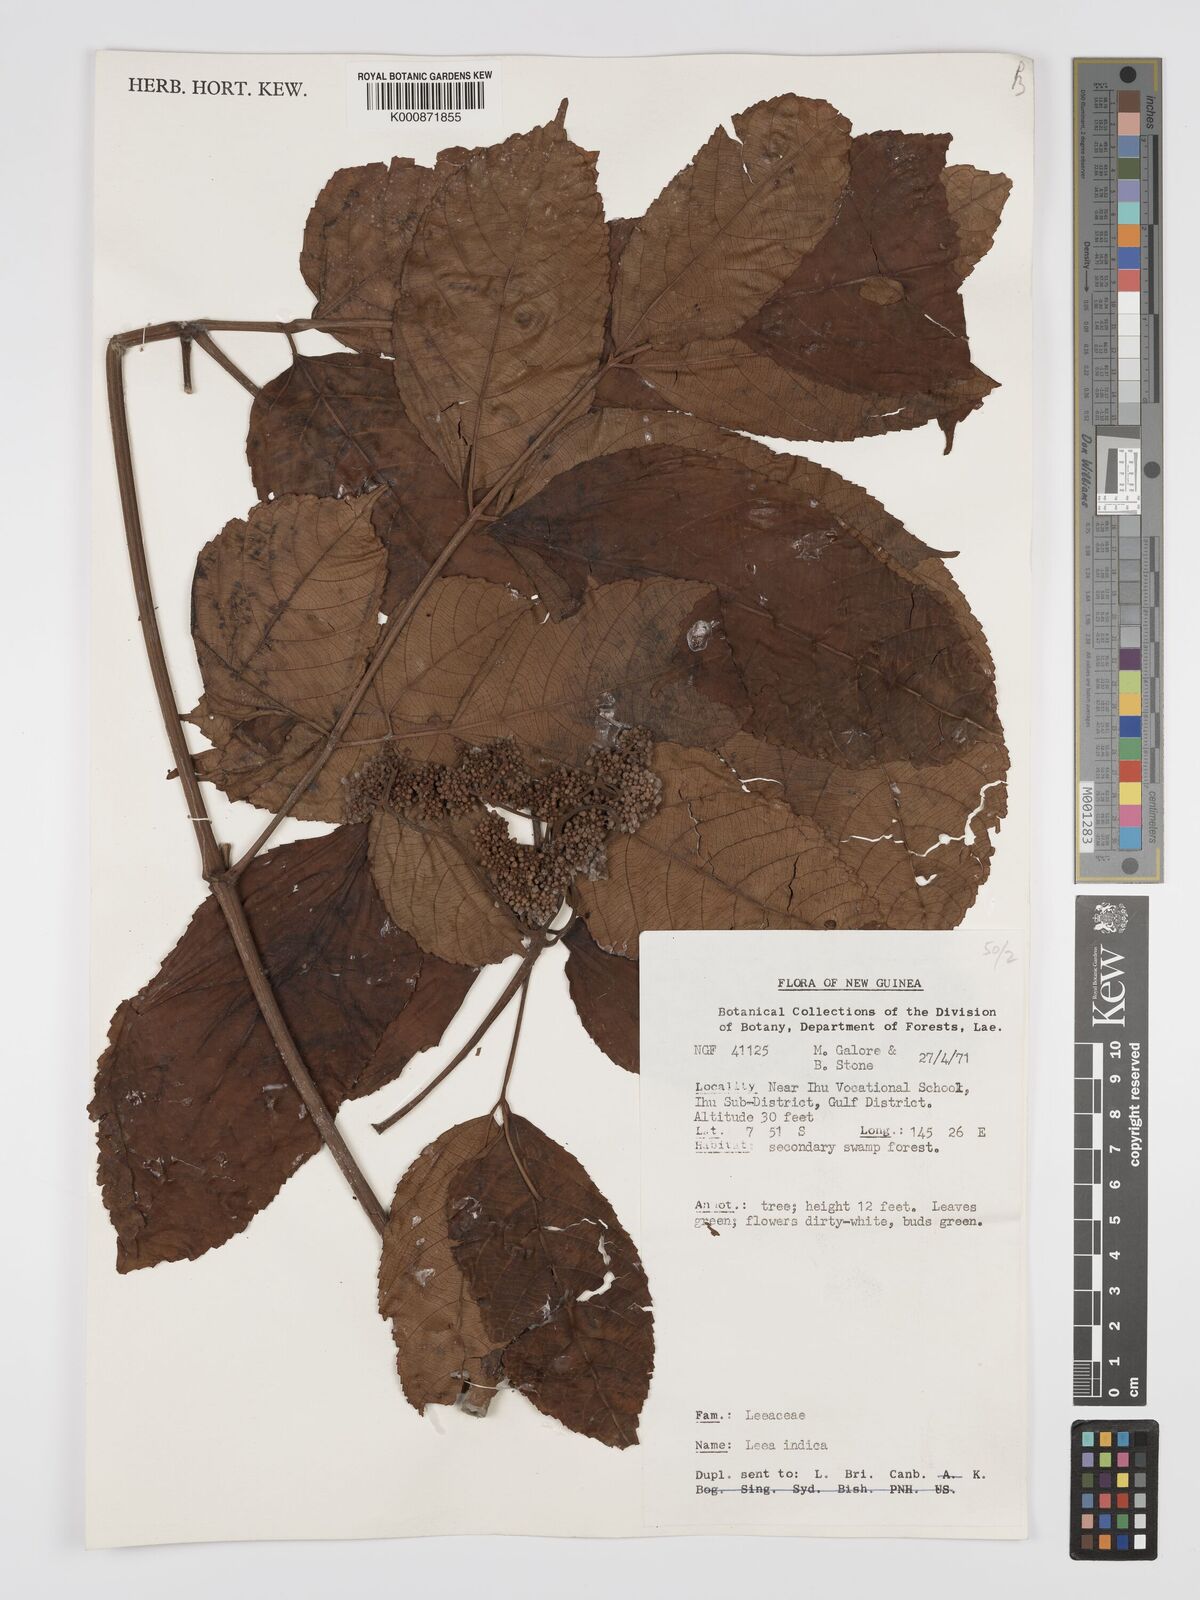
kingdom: Plantae
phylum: Tracheophyta
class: Magnoliopsida
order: Vitales
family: Vitaceae
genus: Leea
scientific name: Leea indica
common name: Bandicoot-berry
